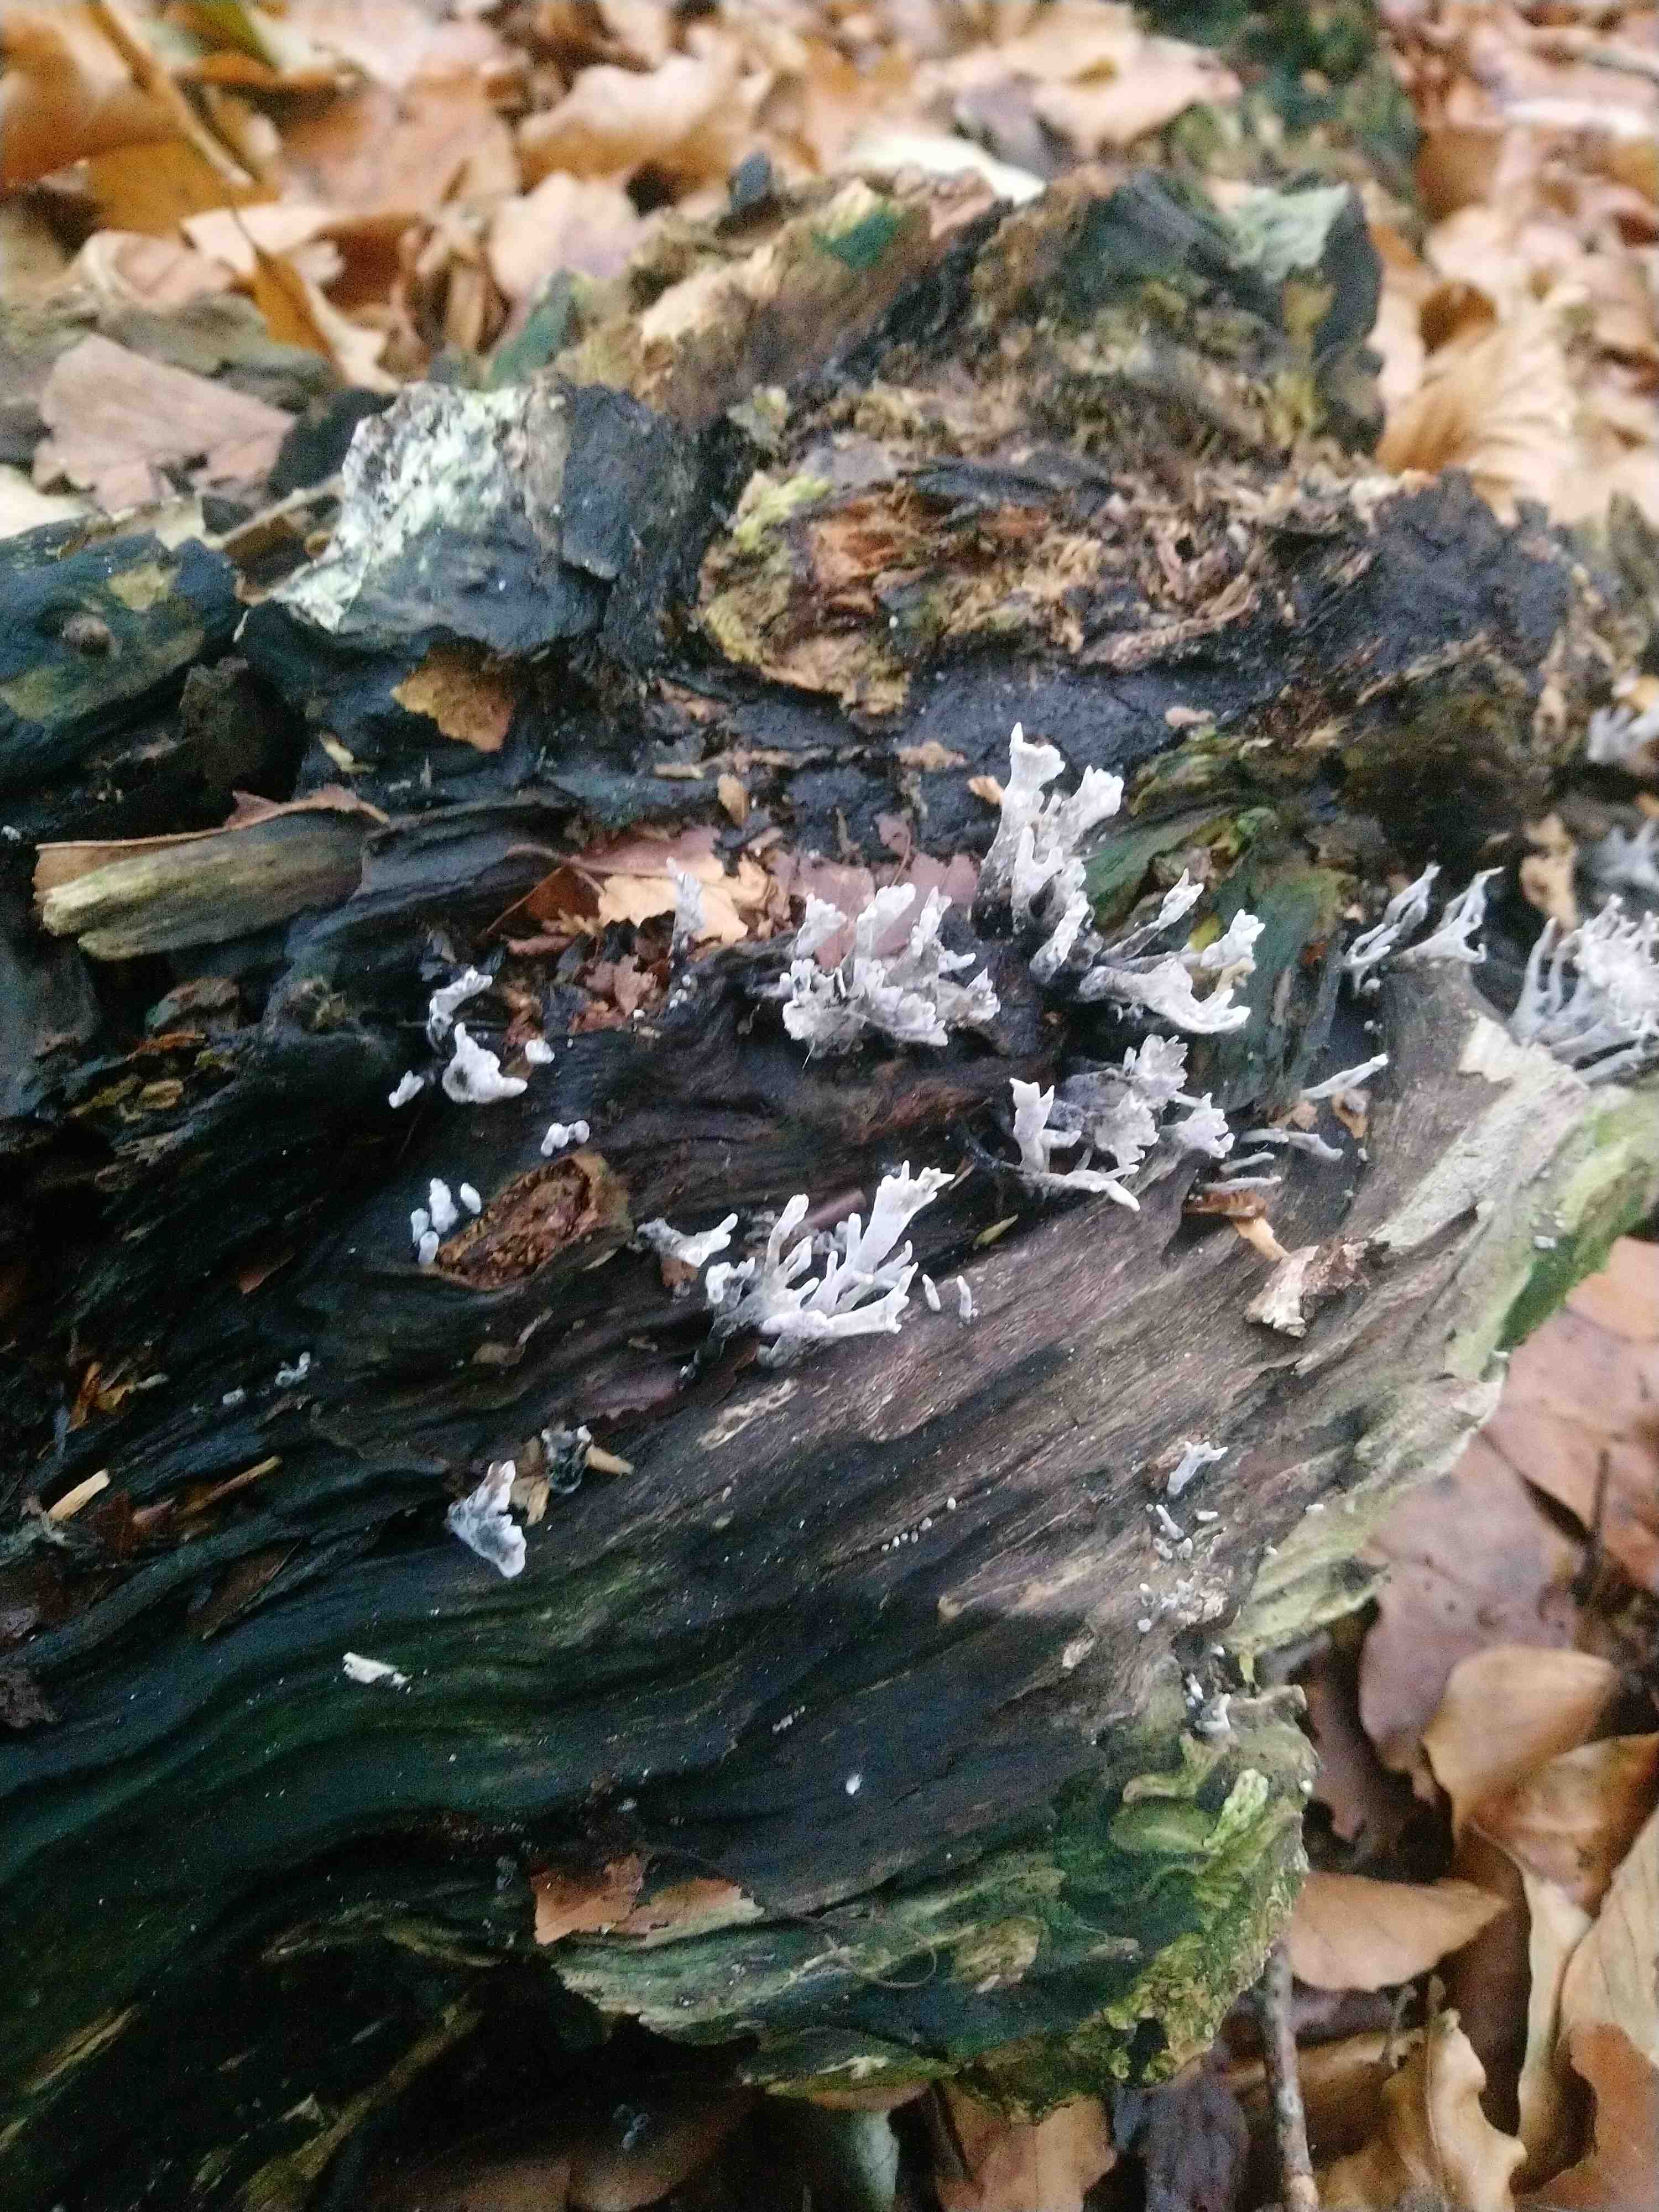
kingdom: Fungi
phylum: Ascomycota
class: Sordariomycetes
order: Xylariales
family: Xylariaceae
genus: Xylaria
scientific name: Xylaria hypoxylon
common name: grenet stødsvamp
